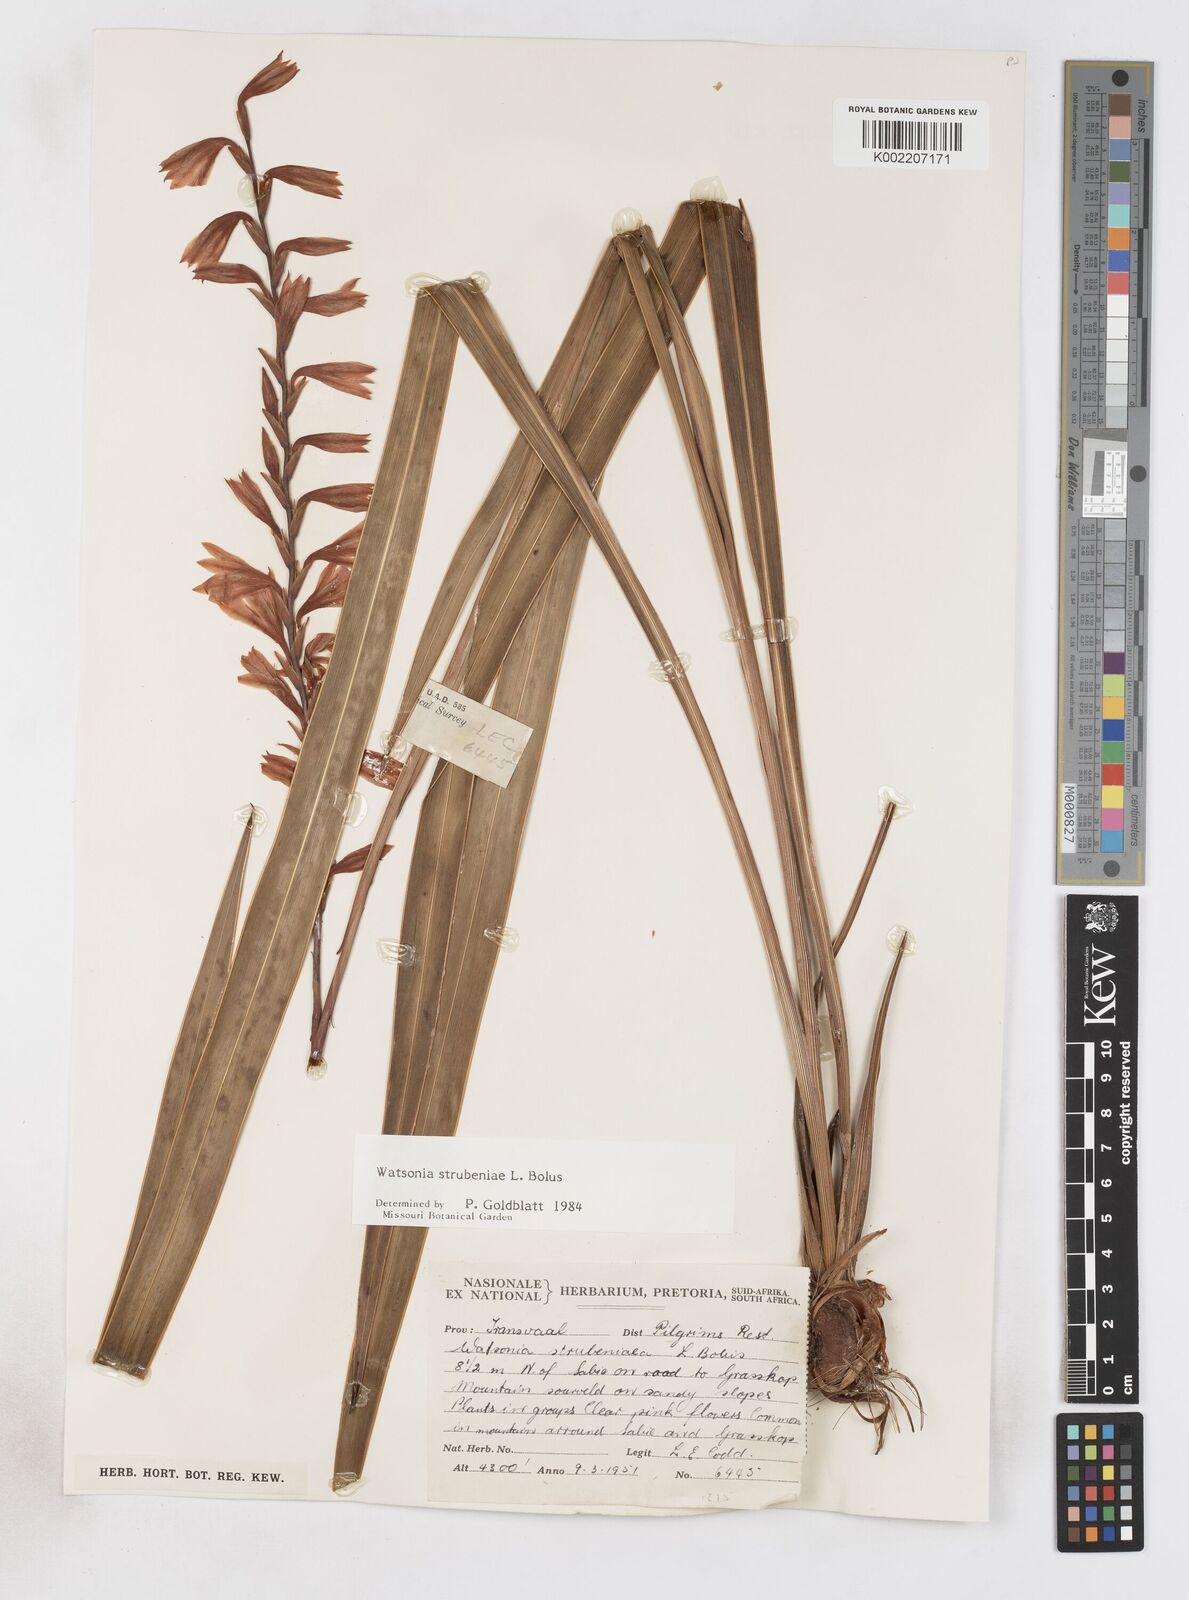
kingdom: Plantae
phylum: Tracheophyta
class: Liliopsida
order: Asparagales
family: Iridaceae
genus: Watsonia
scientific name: Watsonia strubeniae
